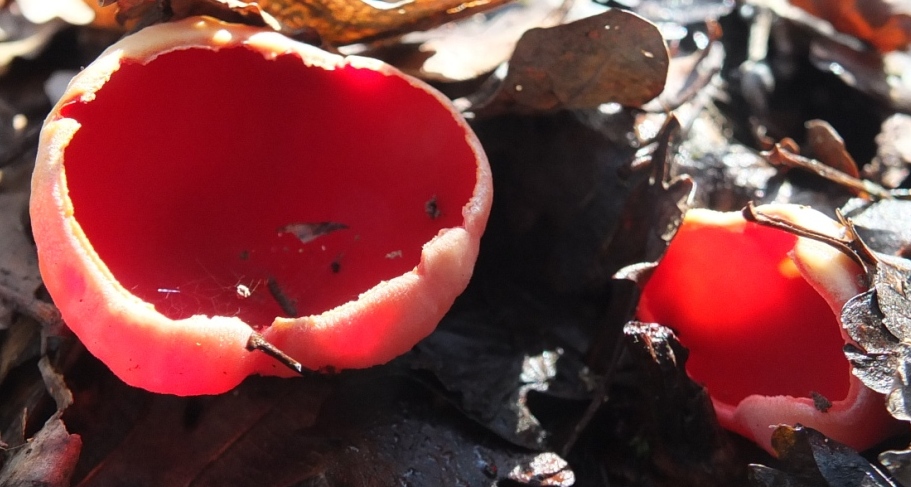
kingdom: Fungi
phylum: Ascomycota
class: Pezizomycetes
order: Pezizales
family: Sarcoscyphaceae
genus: Sarcoscypha
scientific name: Sarcoscypha austriaca
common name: krølhåret pragtbæger
